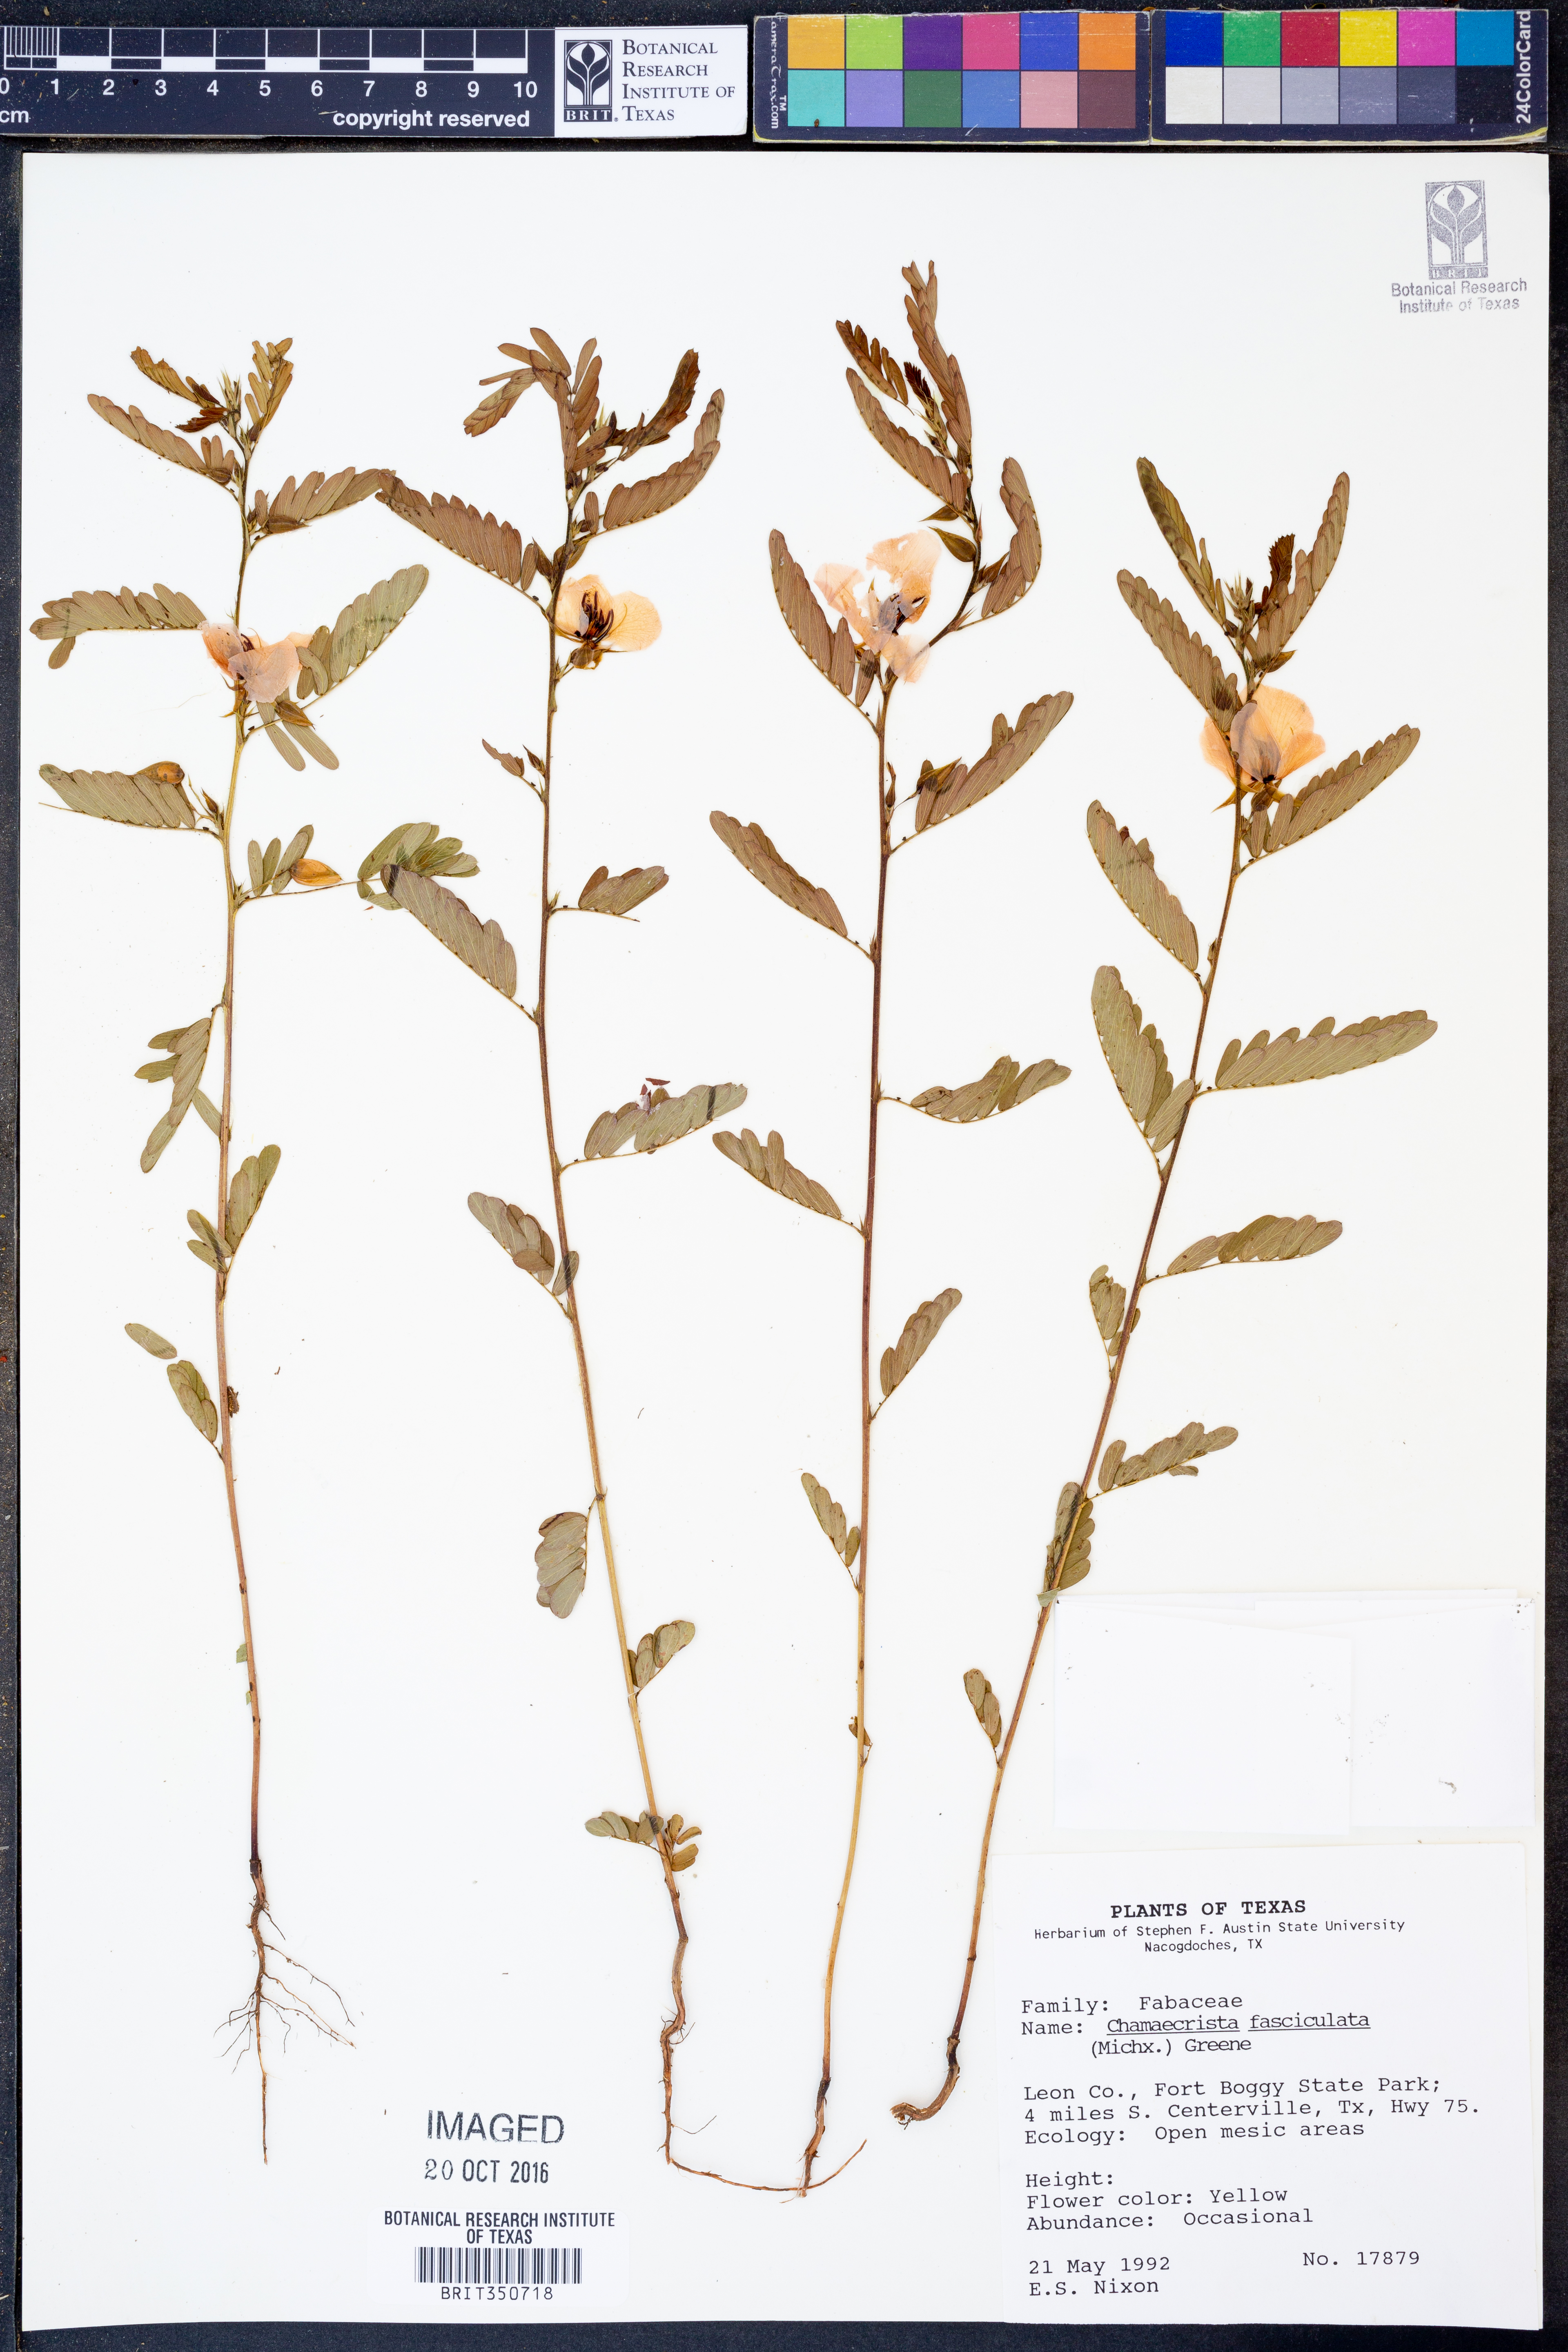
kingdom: Plantae
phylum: Tracheophyta
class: Magnoliopsida
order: Fabales
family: Fabaceae
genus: Chamaecrista
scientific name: Chamaecrista fasciculata
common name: Golden cassia
